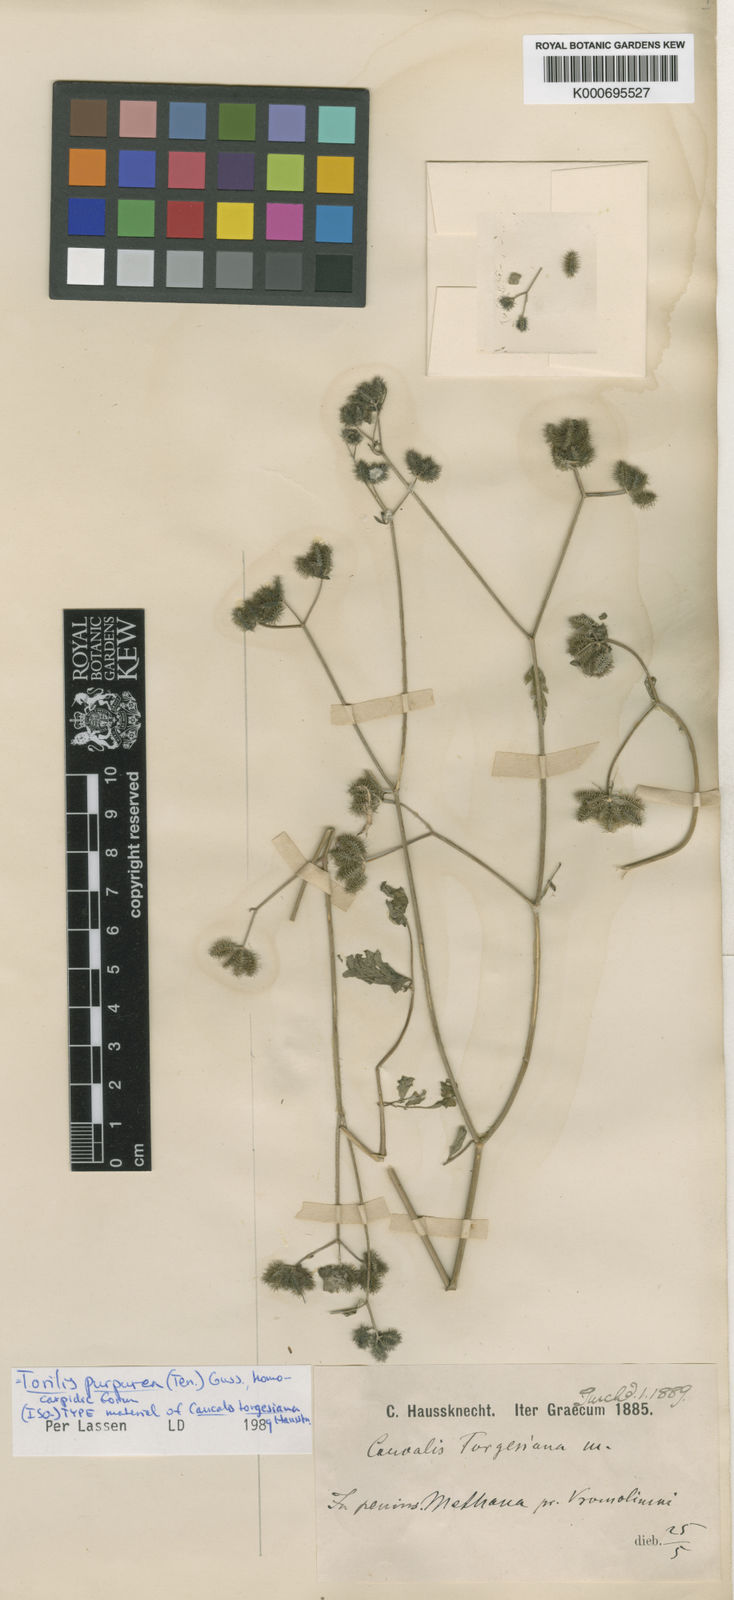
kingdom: Plantae
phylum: Tracheophyta
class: Magnoliopsida
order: Apiales
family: Apiaceae
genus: Torilis
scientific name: Torilis africana
